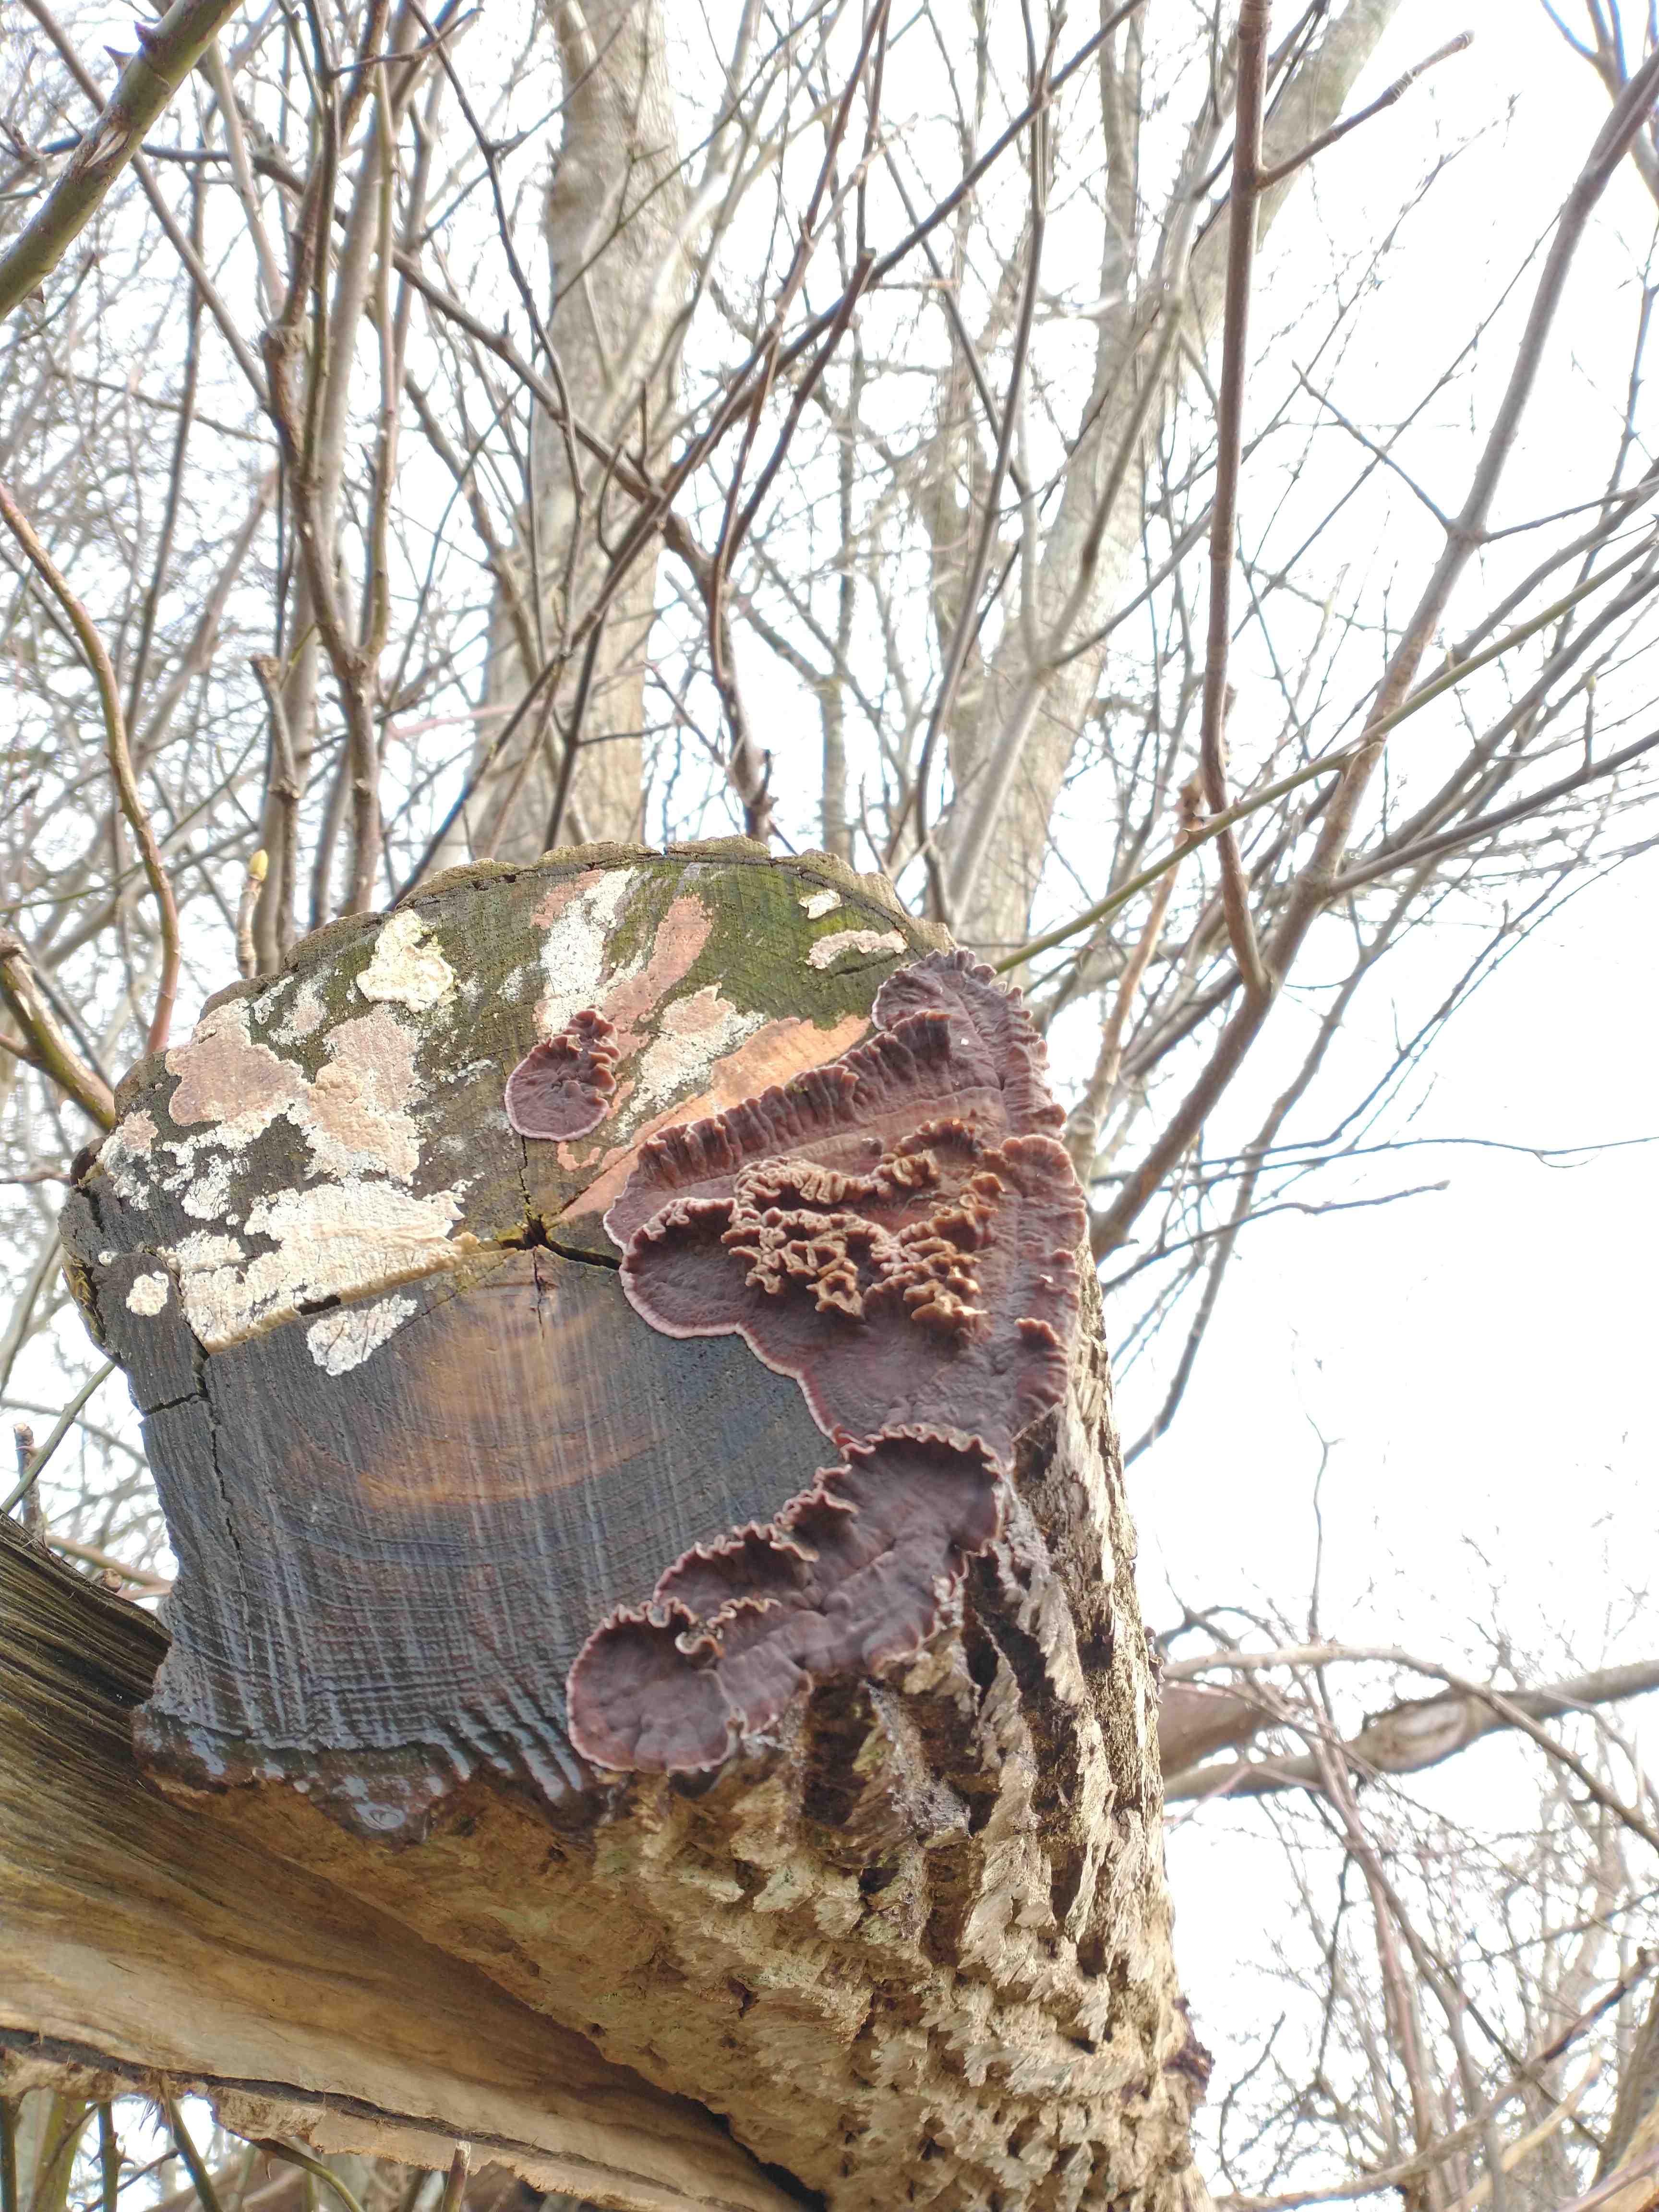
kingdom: Fungi
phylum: Basidiomycota
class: Agaricomycetes
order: Agaricales
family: Cyphellaceae
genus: Chondrostereum
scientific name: Chondrostereum purpureum
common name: purpurlædersvamp
